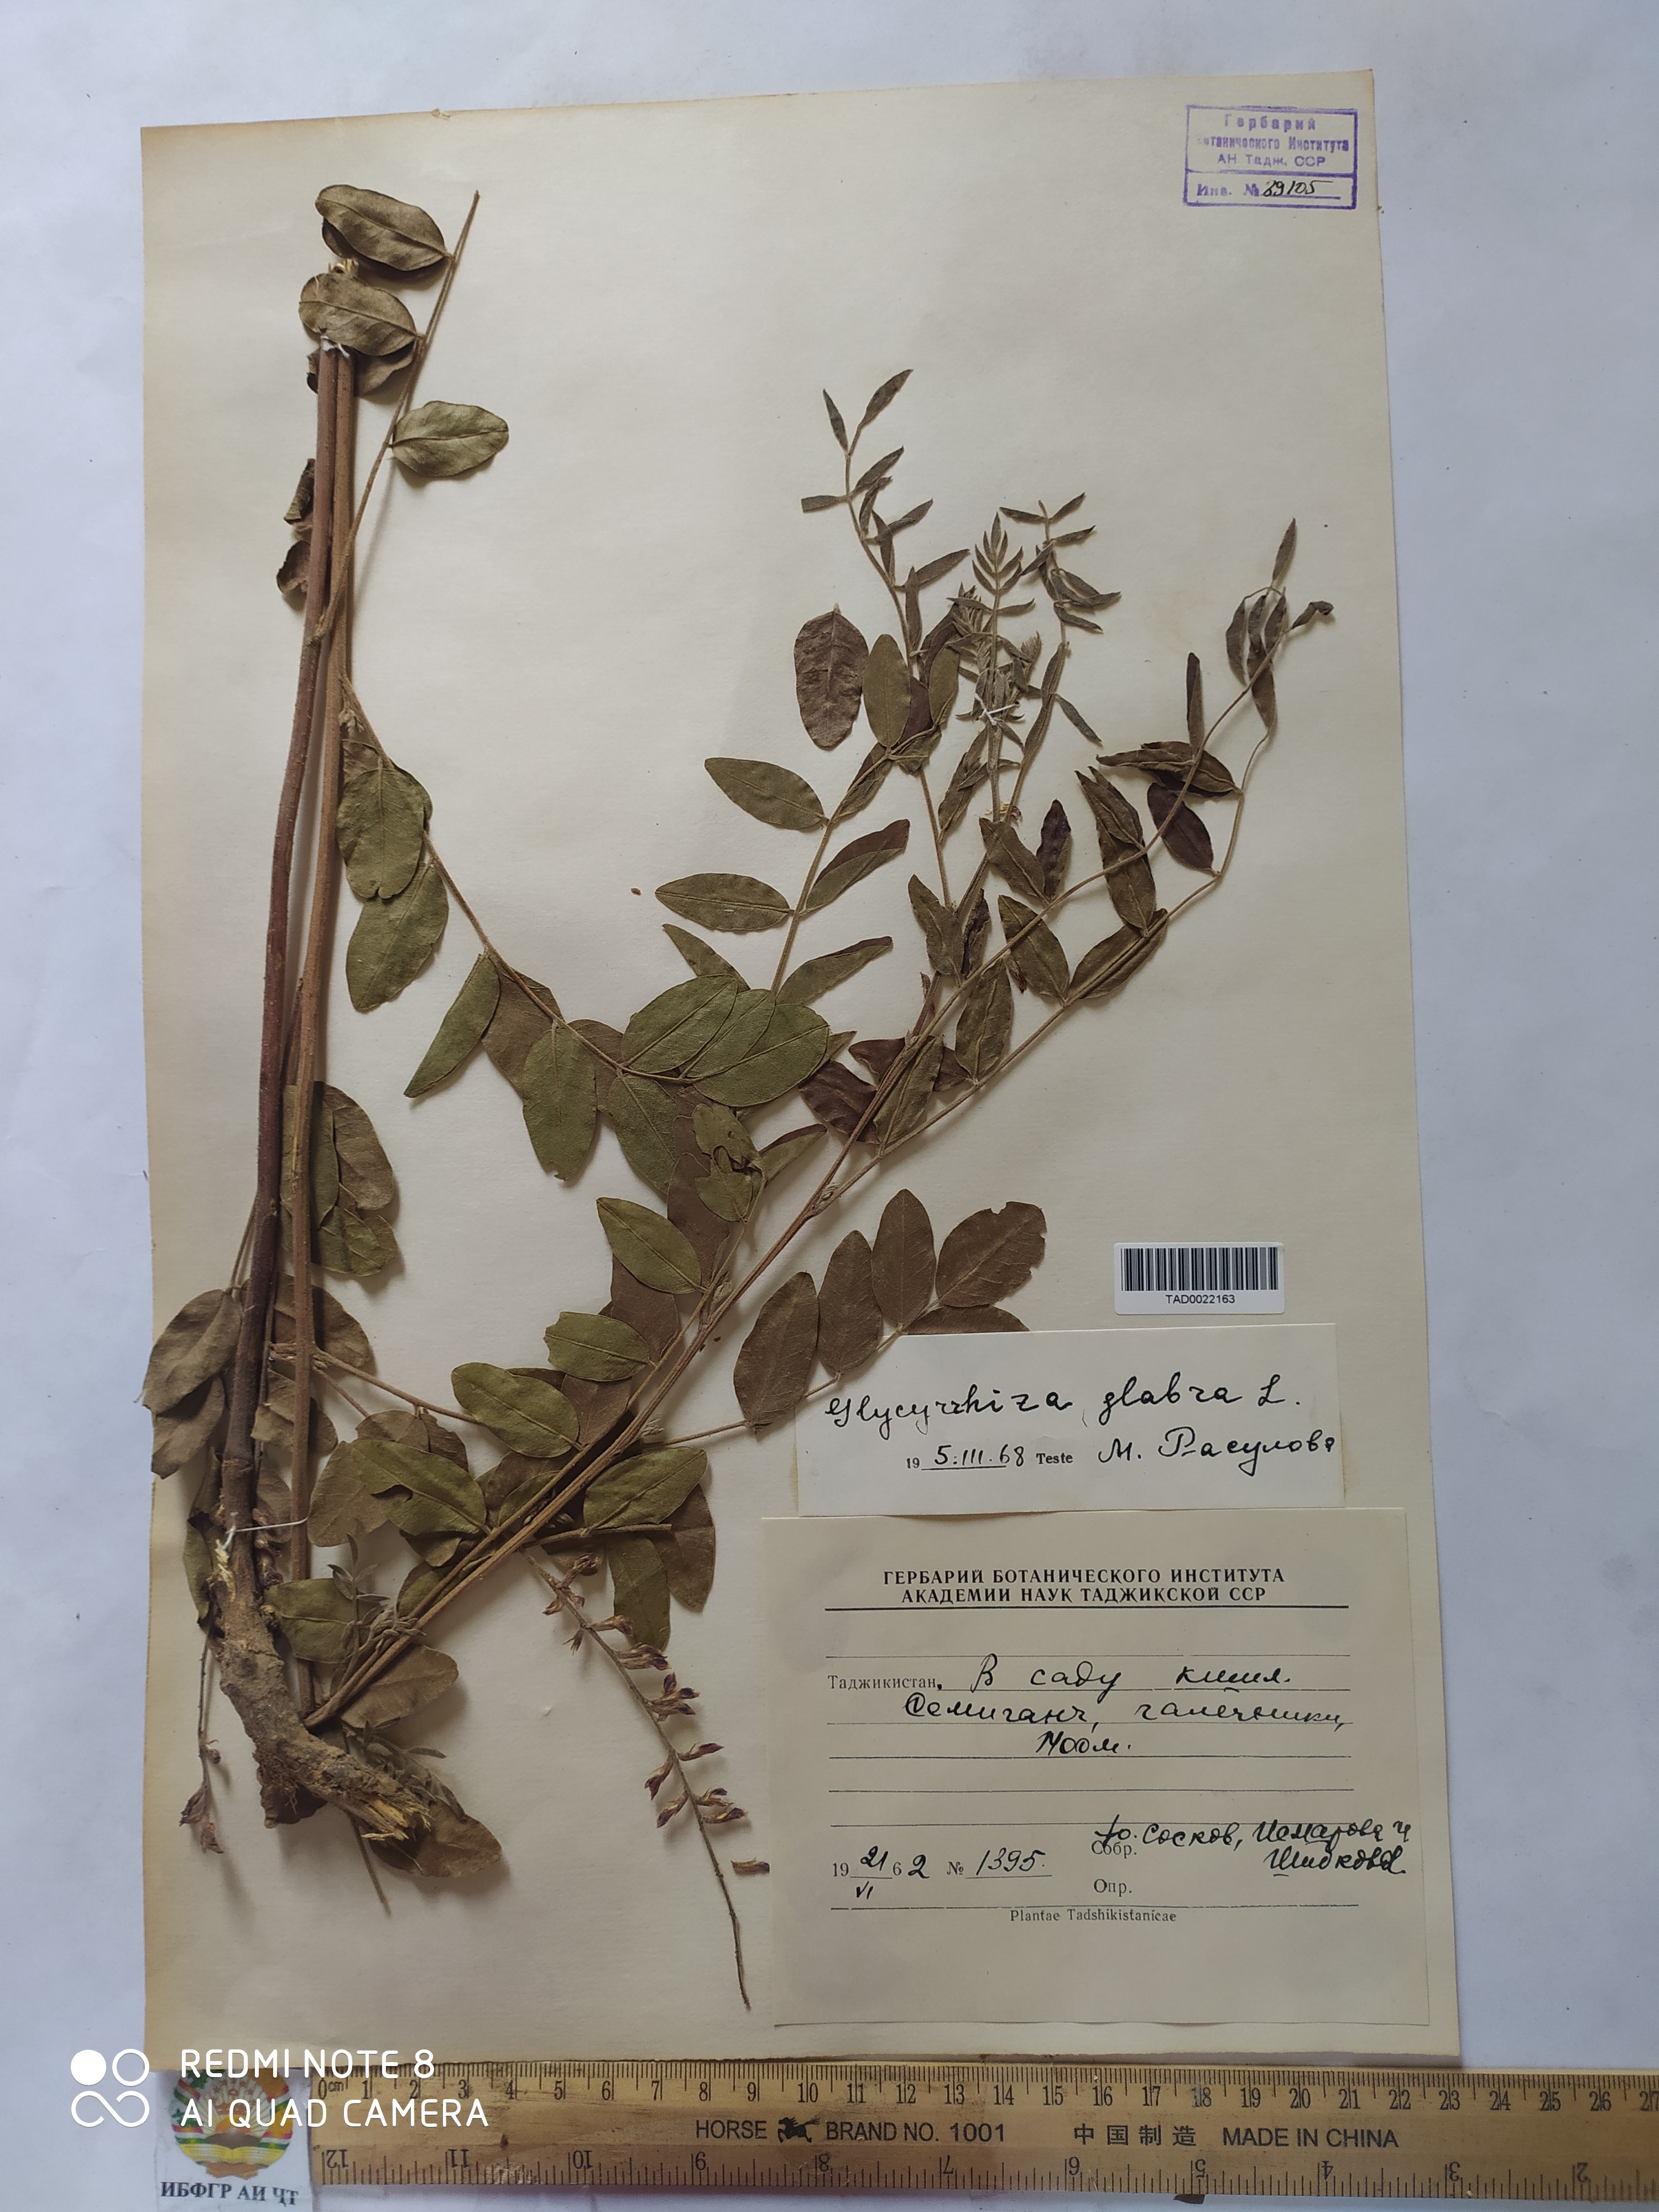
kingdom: Plantae
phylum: Tracheophyta
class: Magnoliopsida
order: Fabales
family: Fabaceae
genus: Glycyrrhiza
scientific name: Glycyrrhiza glabra
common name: Liquorice
